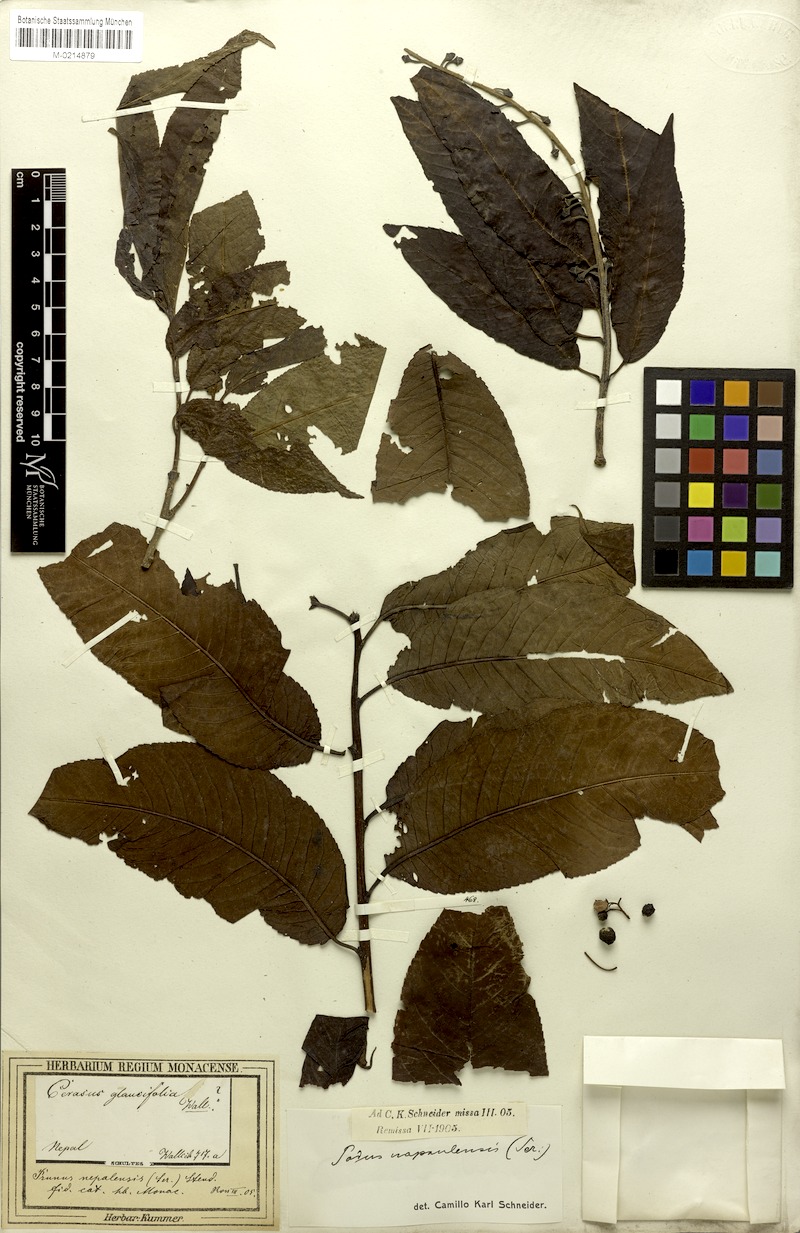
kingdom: Plantae
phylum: Tracheophyta
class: Magnoliopsida
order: Rosales
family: Rosaceae
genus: Prunus
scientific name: Prunus napaulensis
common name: Khasia cherry
